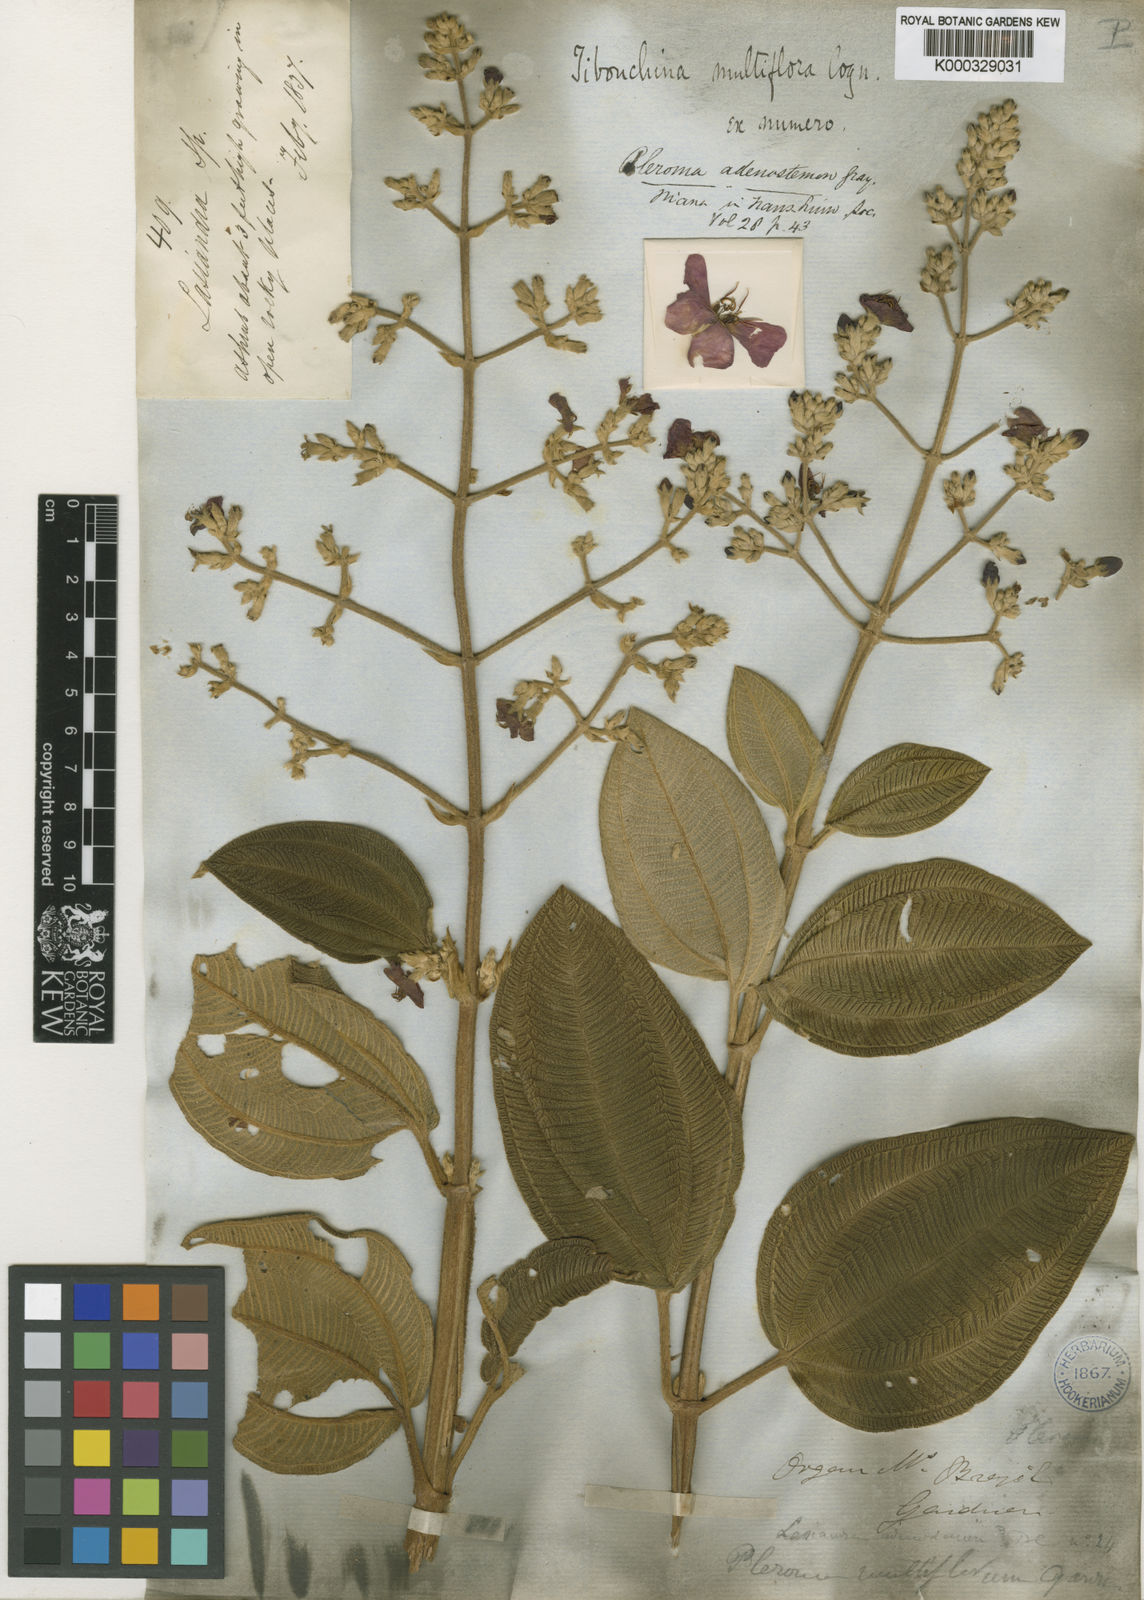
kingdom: Plantae
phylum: Tracheophyta
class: Magnoliopsida
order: Myrtales
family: Melastomataceae
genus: Pleroma
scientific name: Pleroma heteromallum
